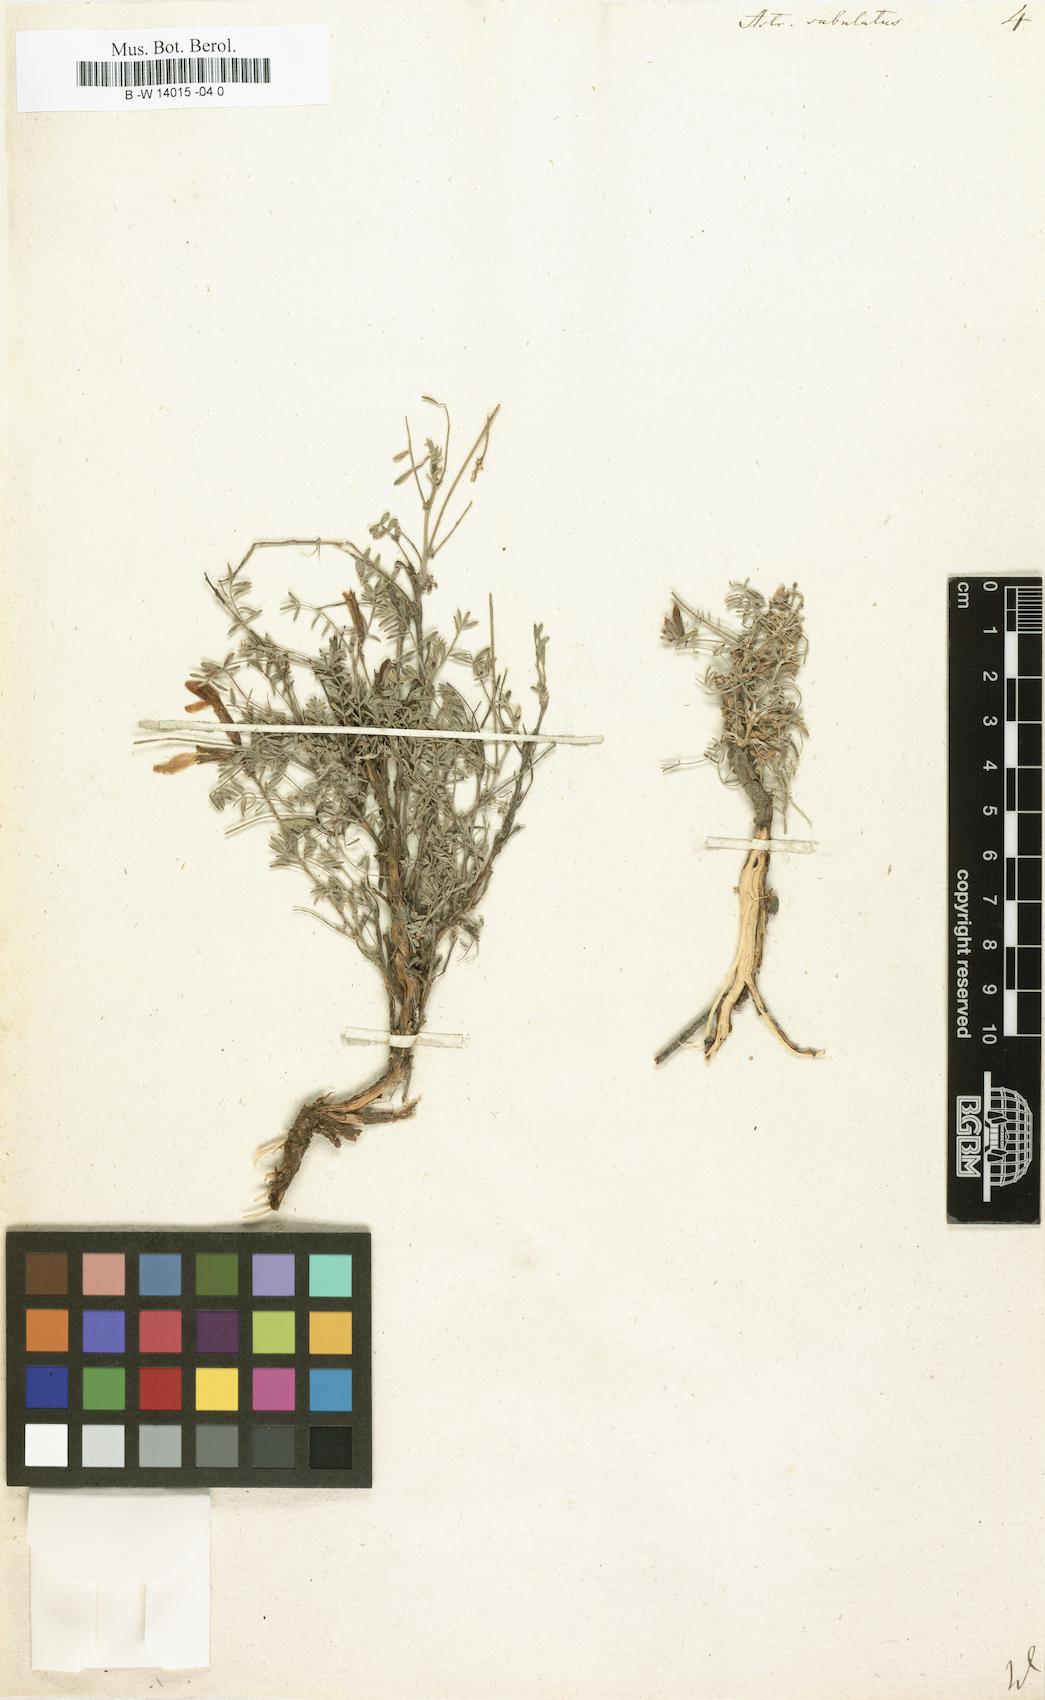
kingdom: Plantae
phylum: Tracheophyta
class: Magnoliopsida
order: Fabales
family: Fabaceae
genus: Astragalus
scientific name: Astragalus anfractuosus
